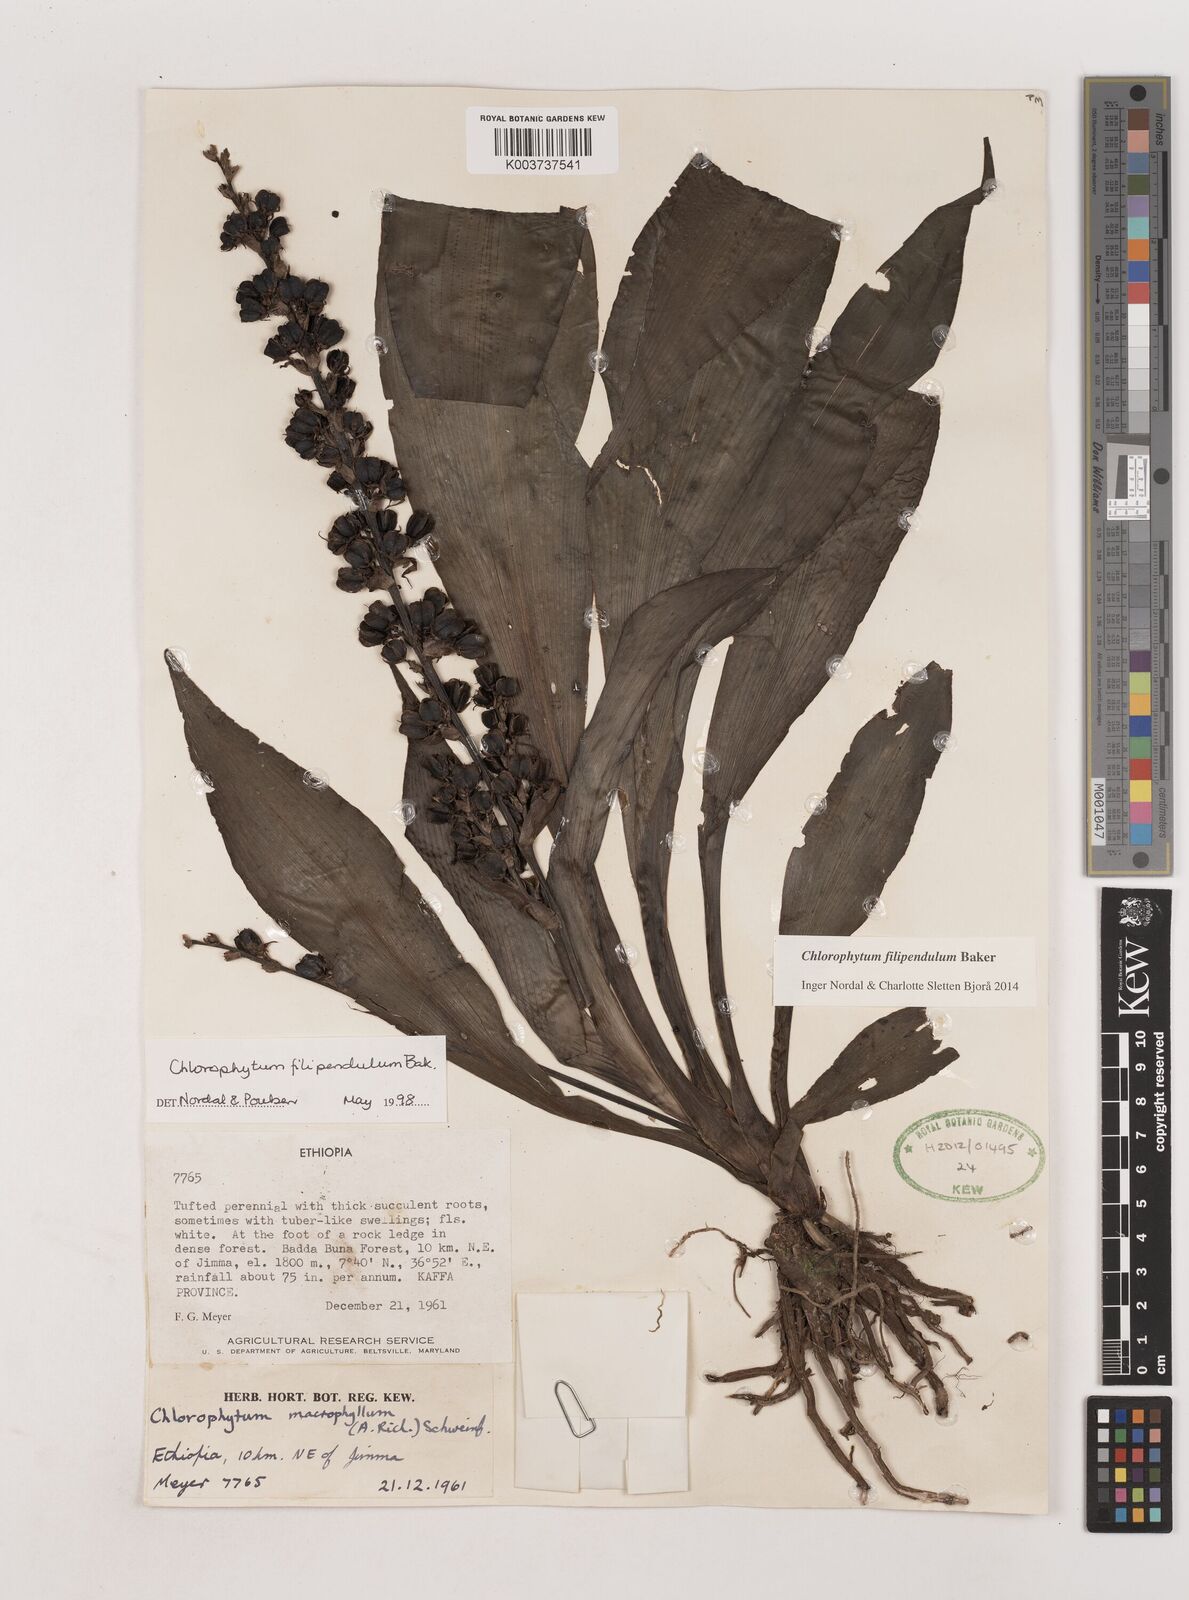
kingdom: Plantae
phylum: Tracheophyta
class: Liliopsida
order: Asparagales
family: Asparagaceae
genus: Chlorophytum
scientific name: Chlorophytum filipendulum
